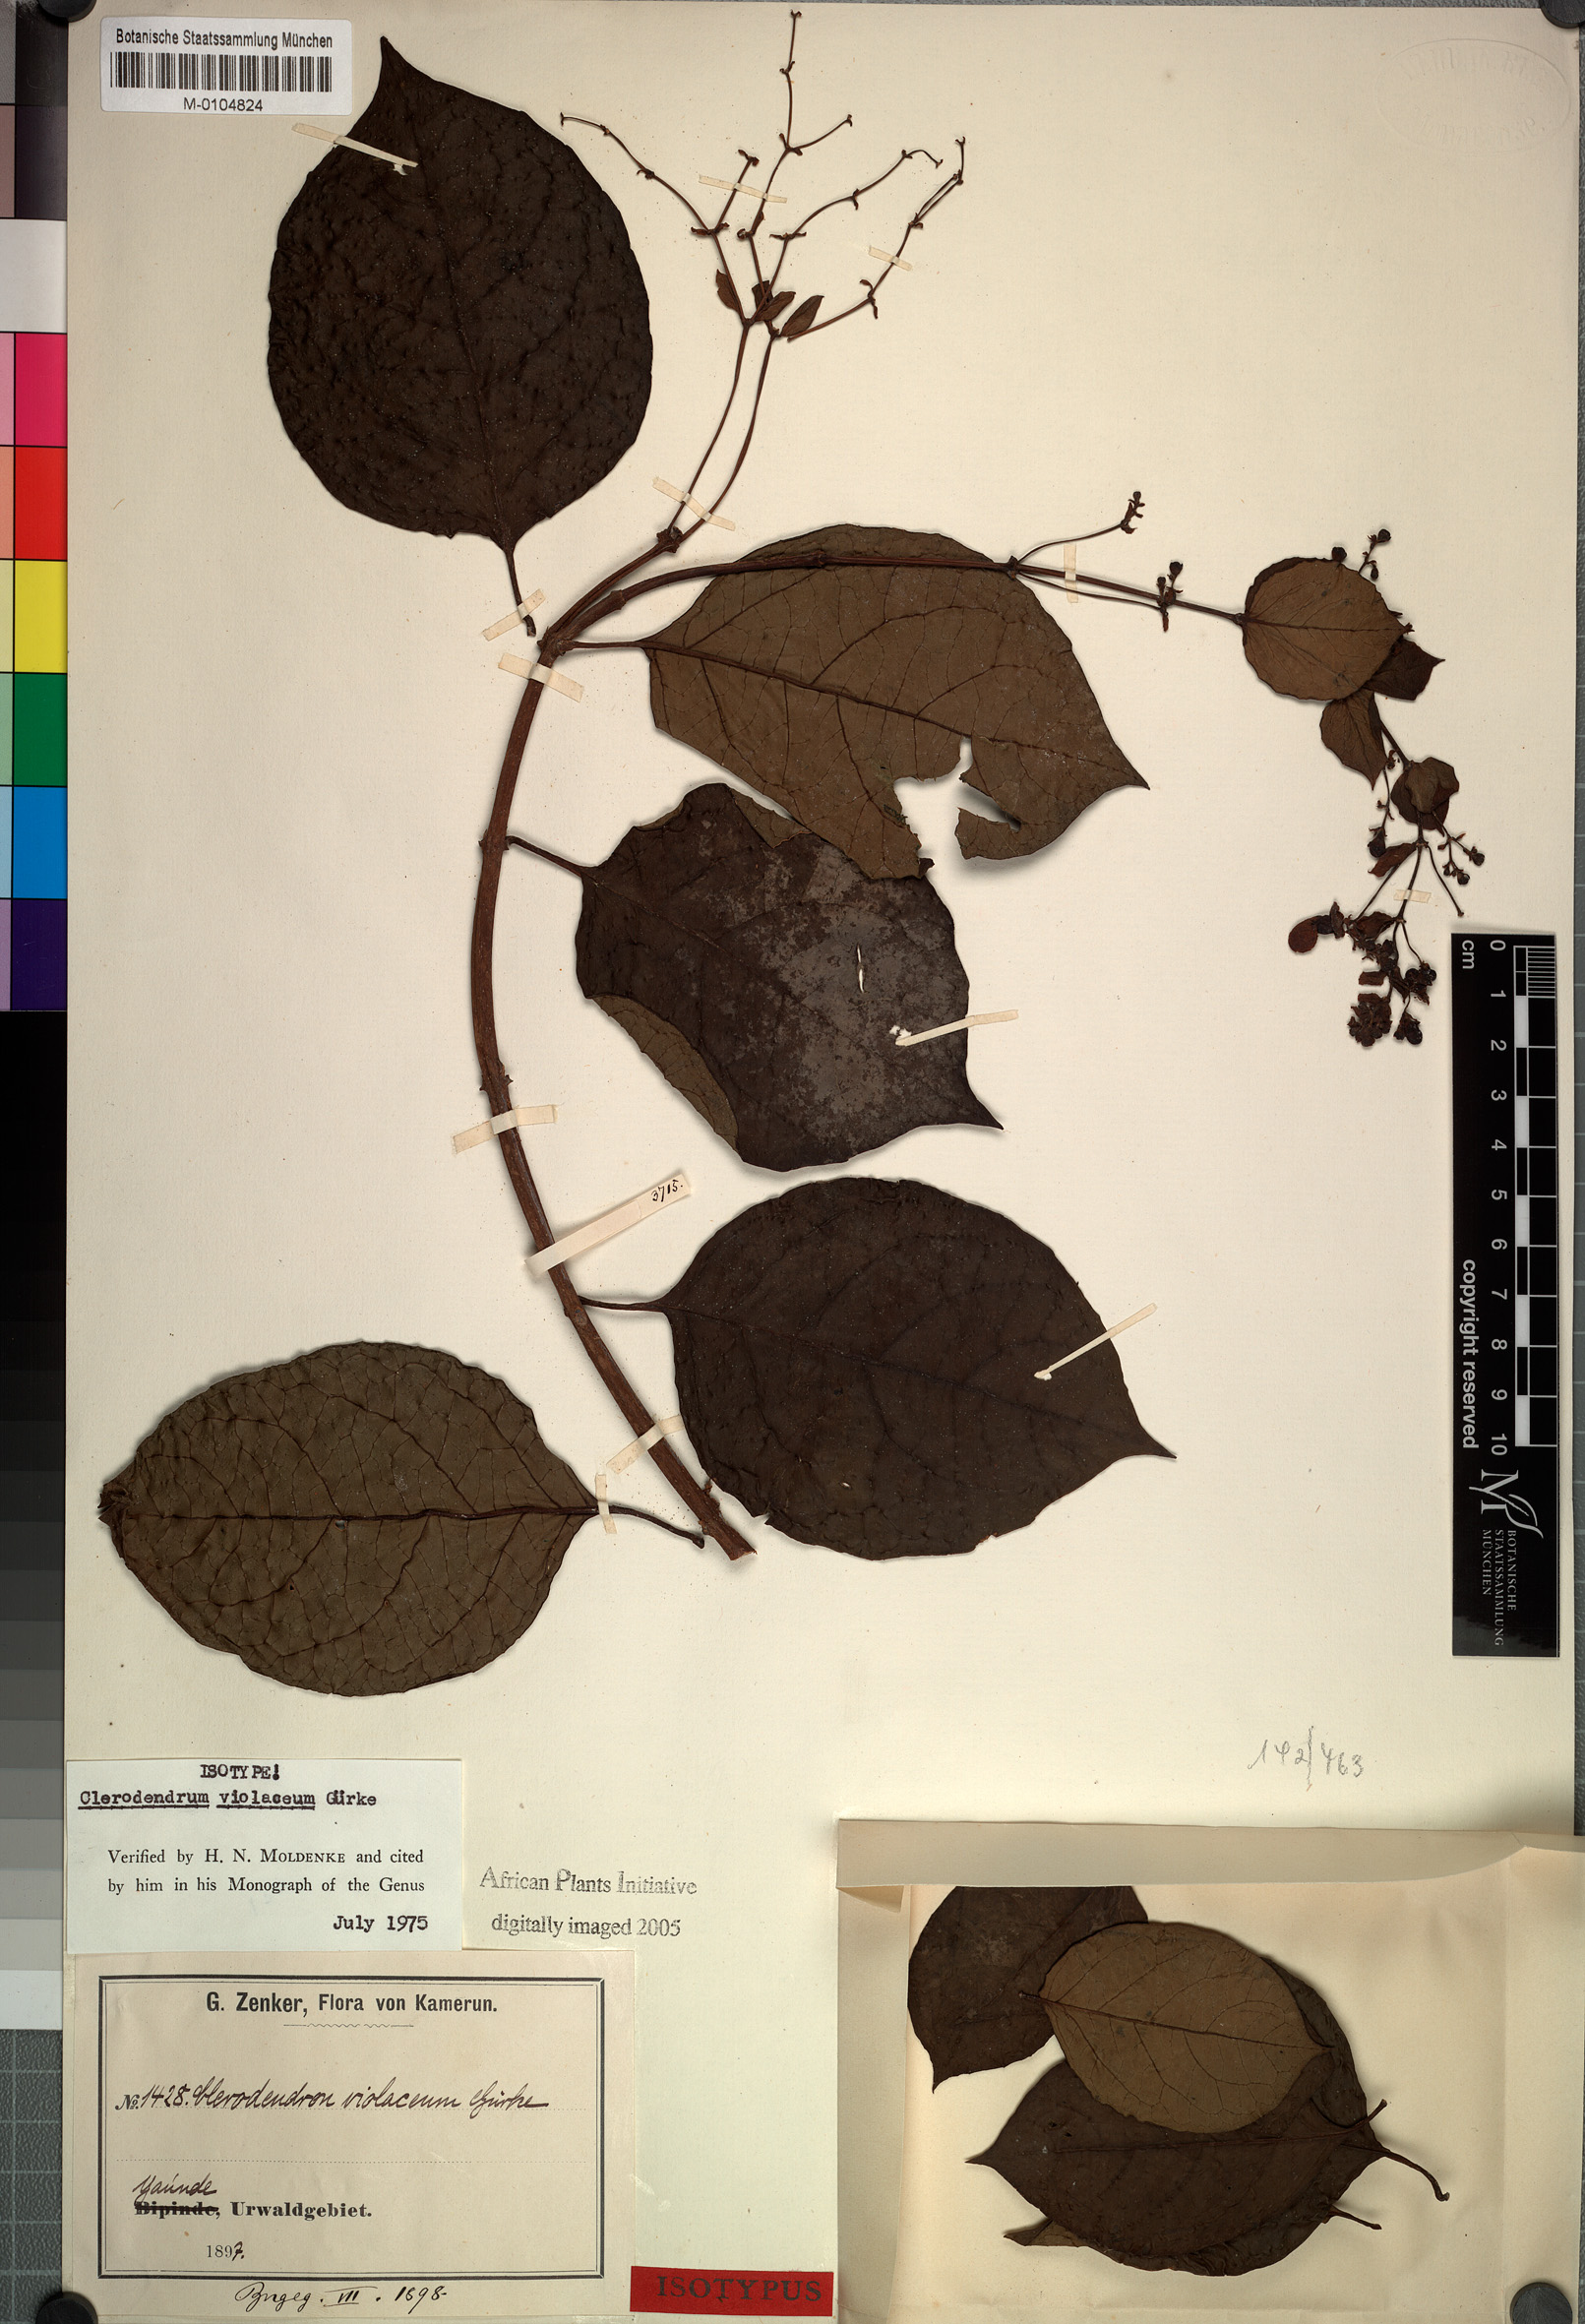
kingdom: Plantae
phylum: Tracheophyta
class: Magnoliopsida
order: Lamiales
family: Lamiaceae
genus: Rotheca
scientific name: Rotheca violacea
